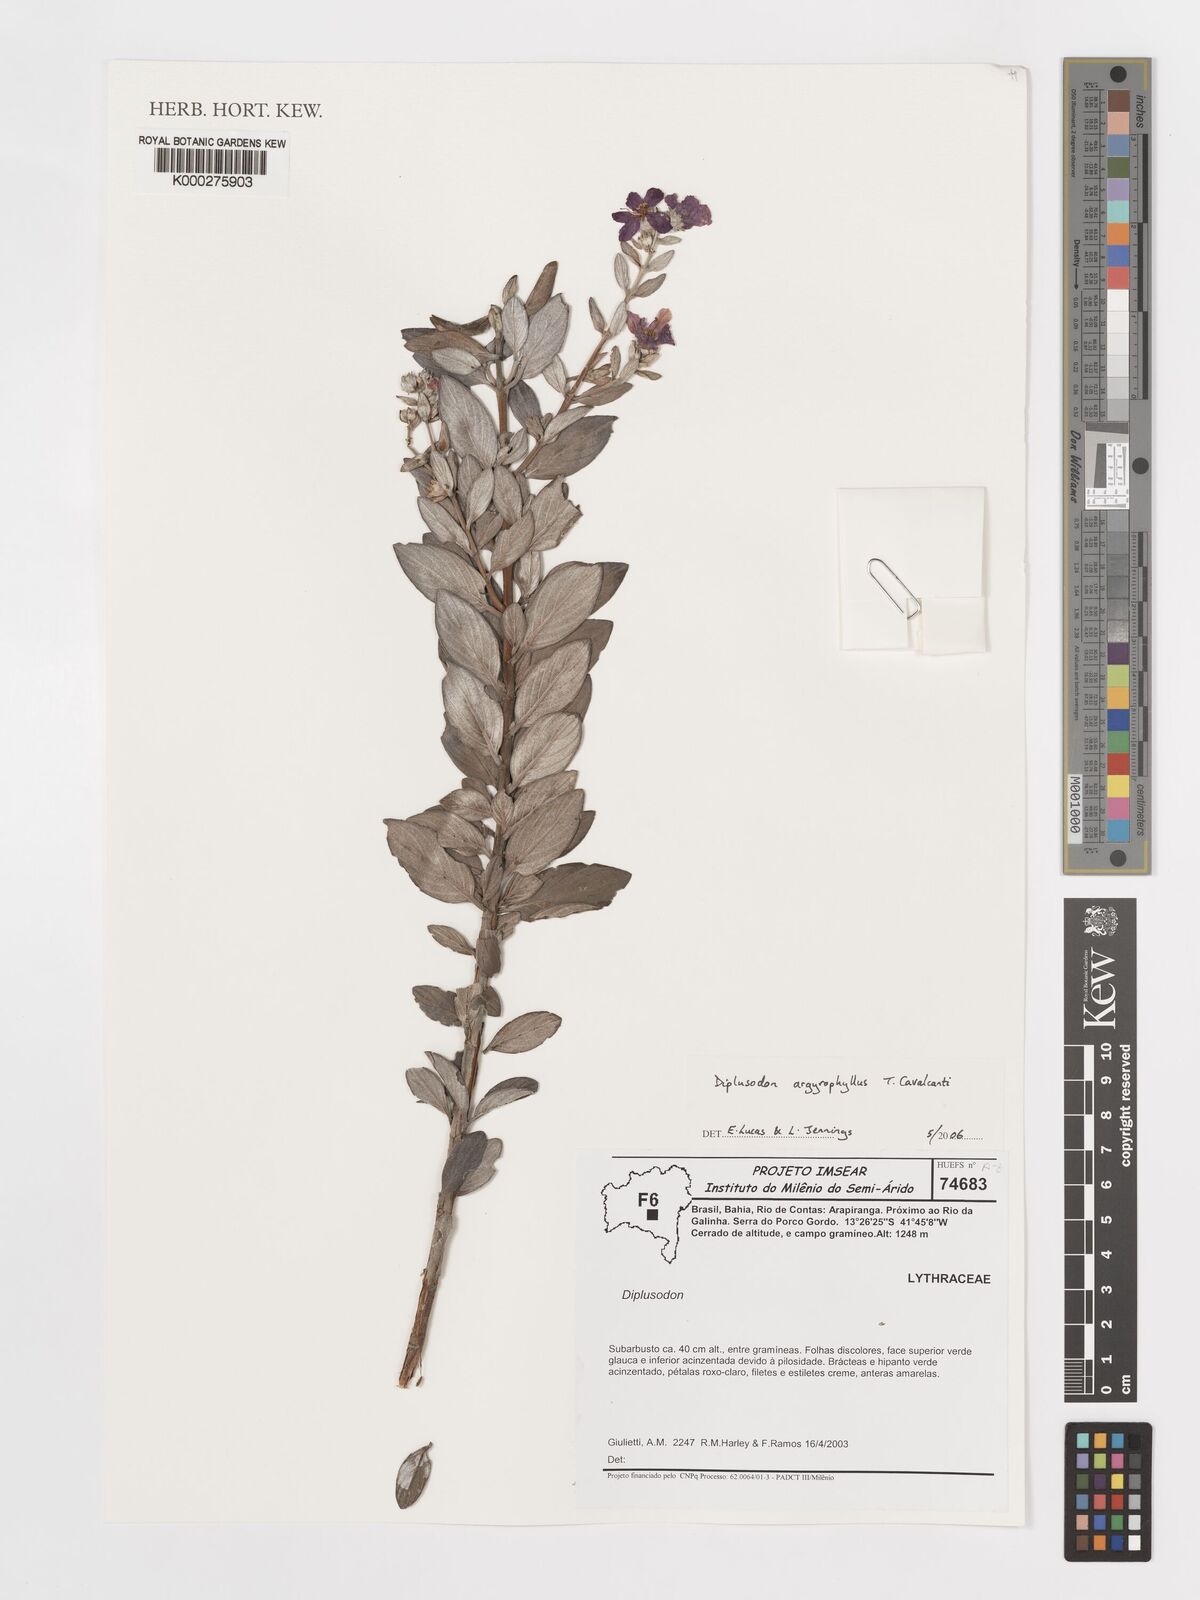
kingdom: Plantae
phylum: Tracheophyta
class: Magnoliopsida
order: Myrtales
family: Lythraceae
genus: Diplusodon
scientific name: Diplusodon argyrophyllus
